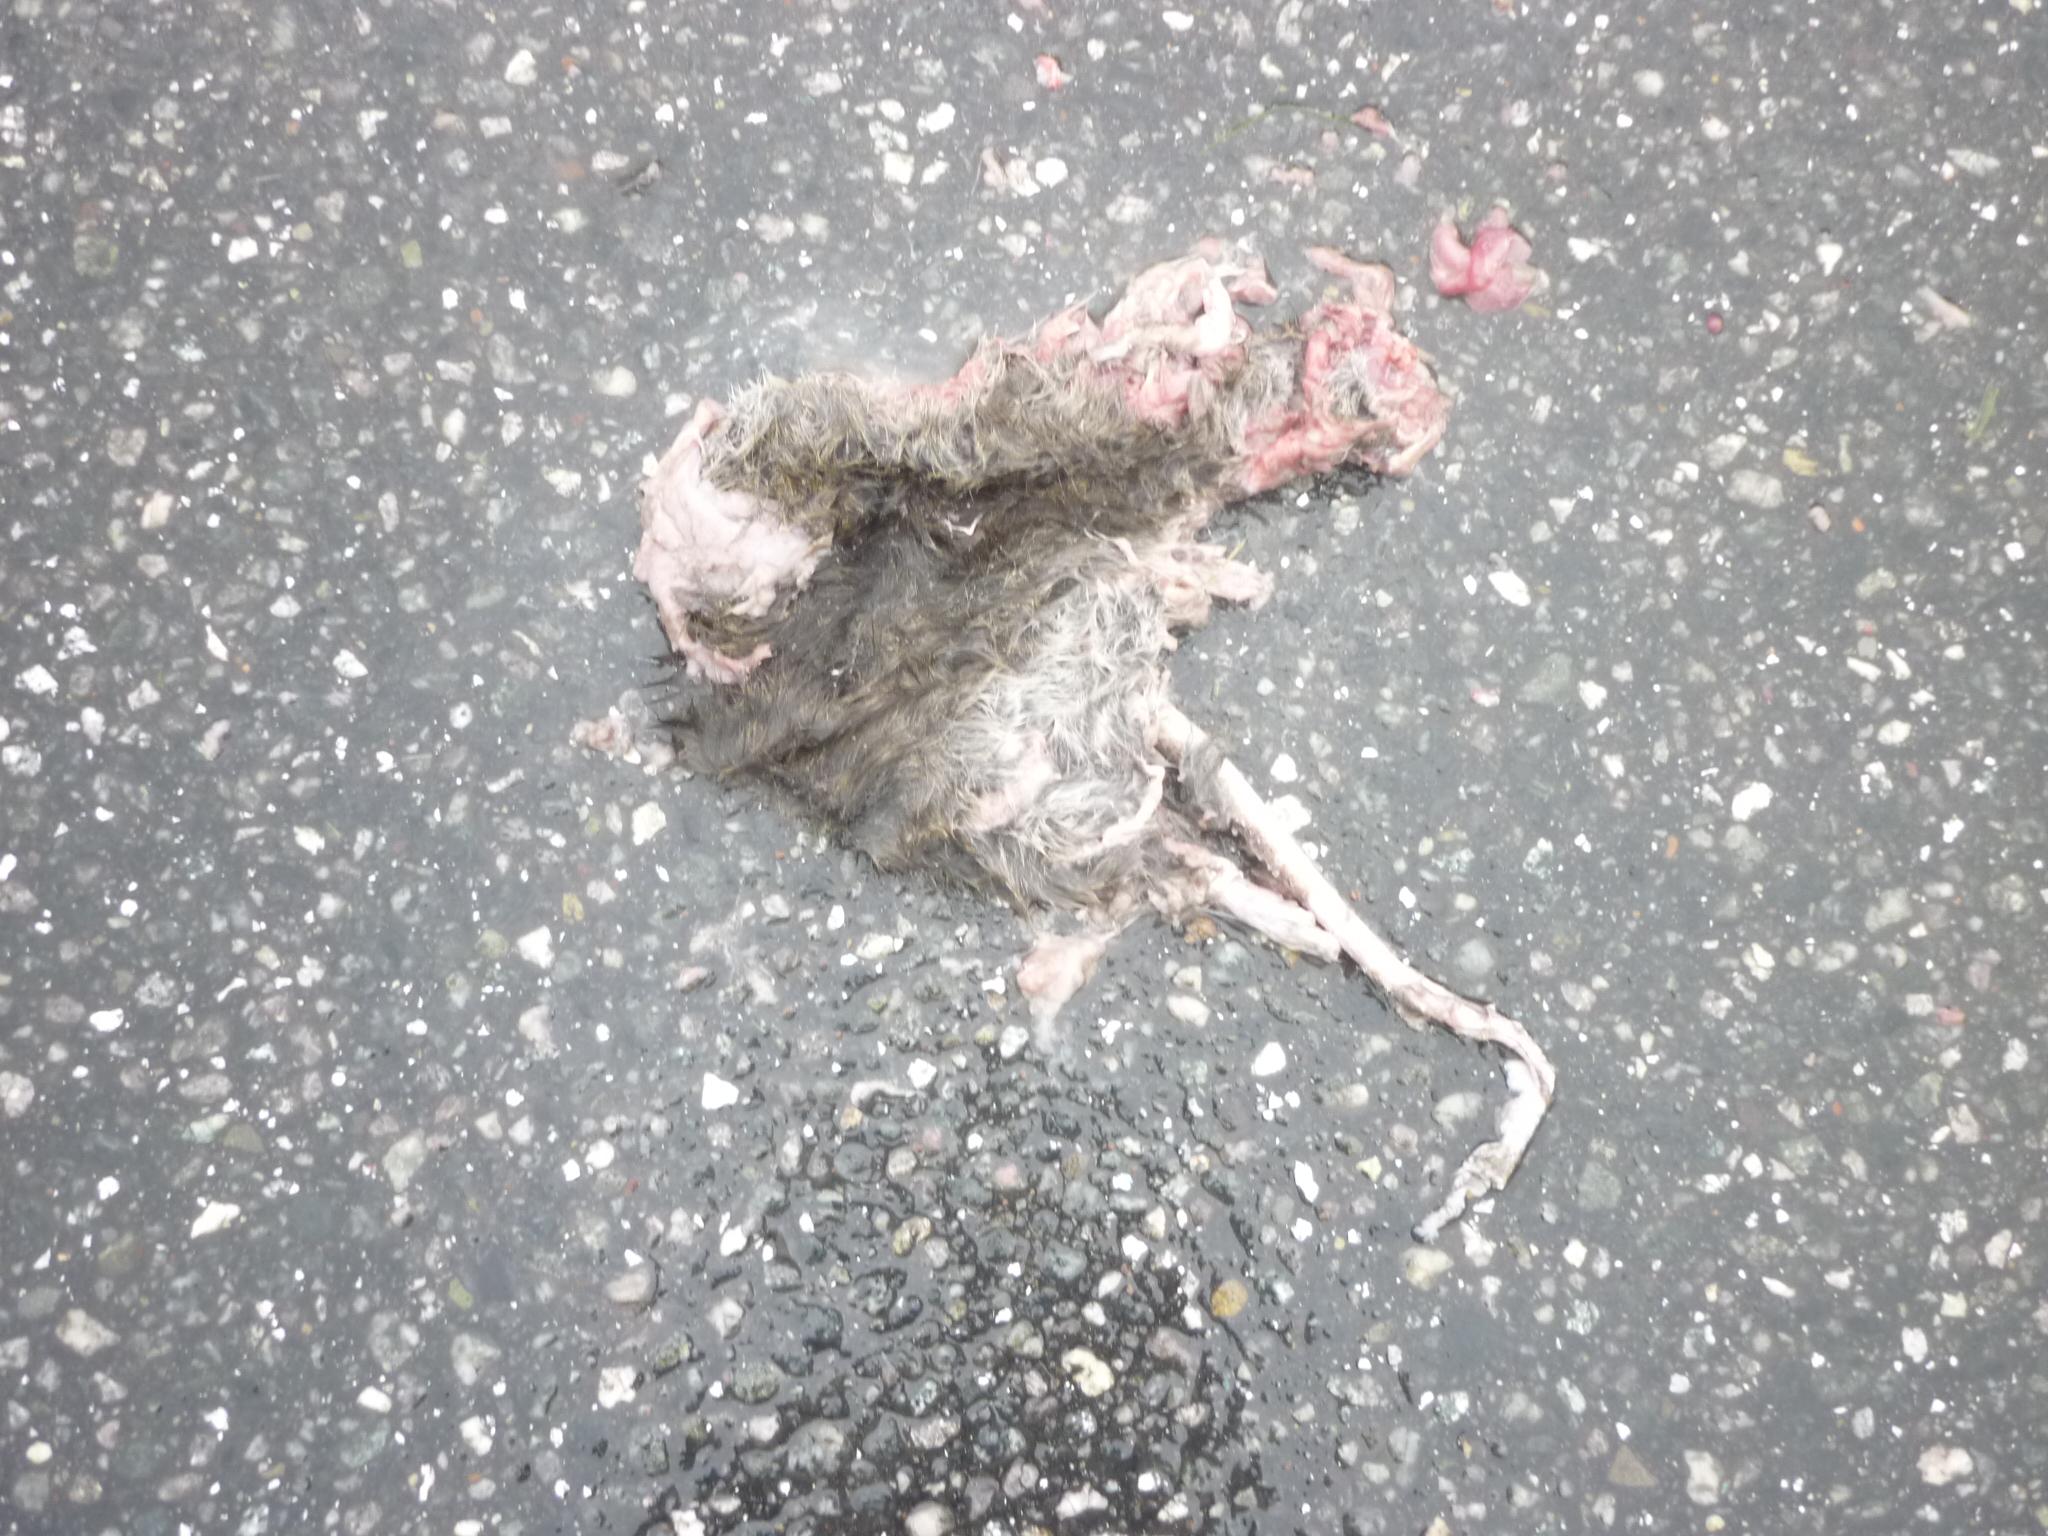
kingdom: Animalia
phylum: Chordata
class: Mammalia
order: Rodentia
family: Muridae
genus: Rattus
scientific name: Rattus
